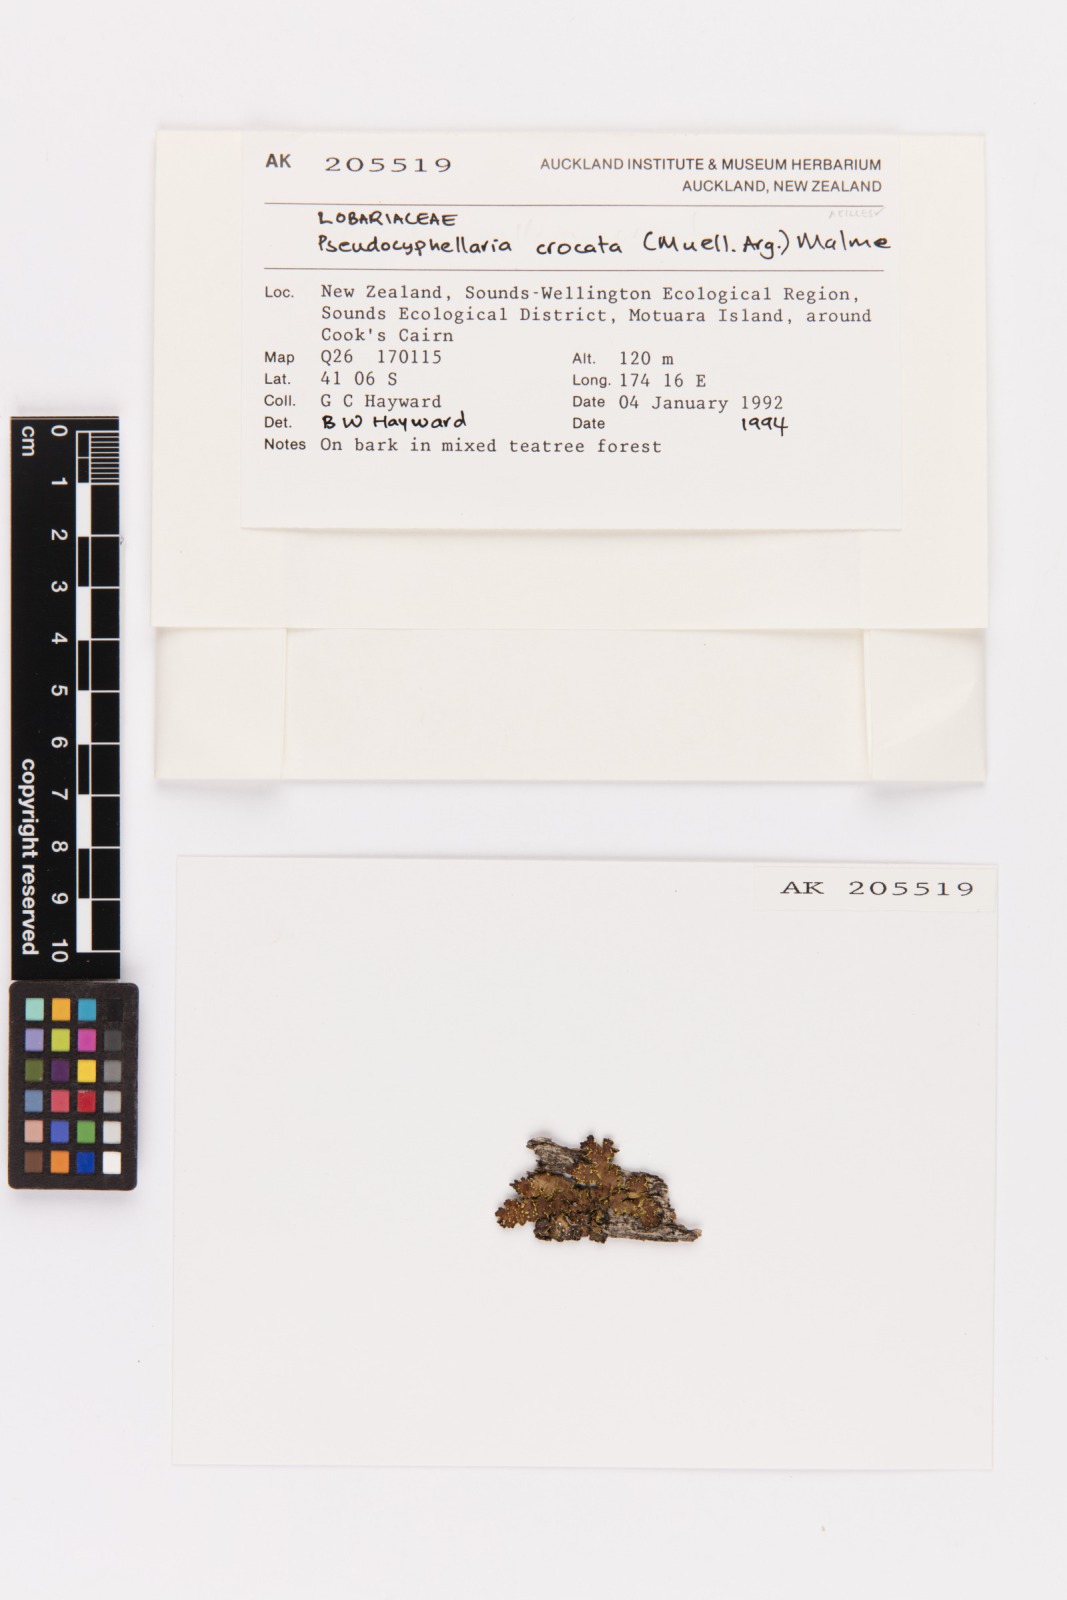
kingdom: Fungi
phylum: Ascomycota
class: Lecanoromycetes
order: Peltigerales
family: Lobariaceae
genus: Pseudocyphellaria
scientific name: Pseudocyphellaria crocata
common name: Golden specklebelly
